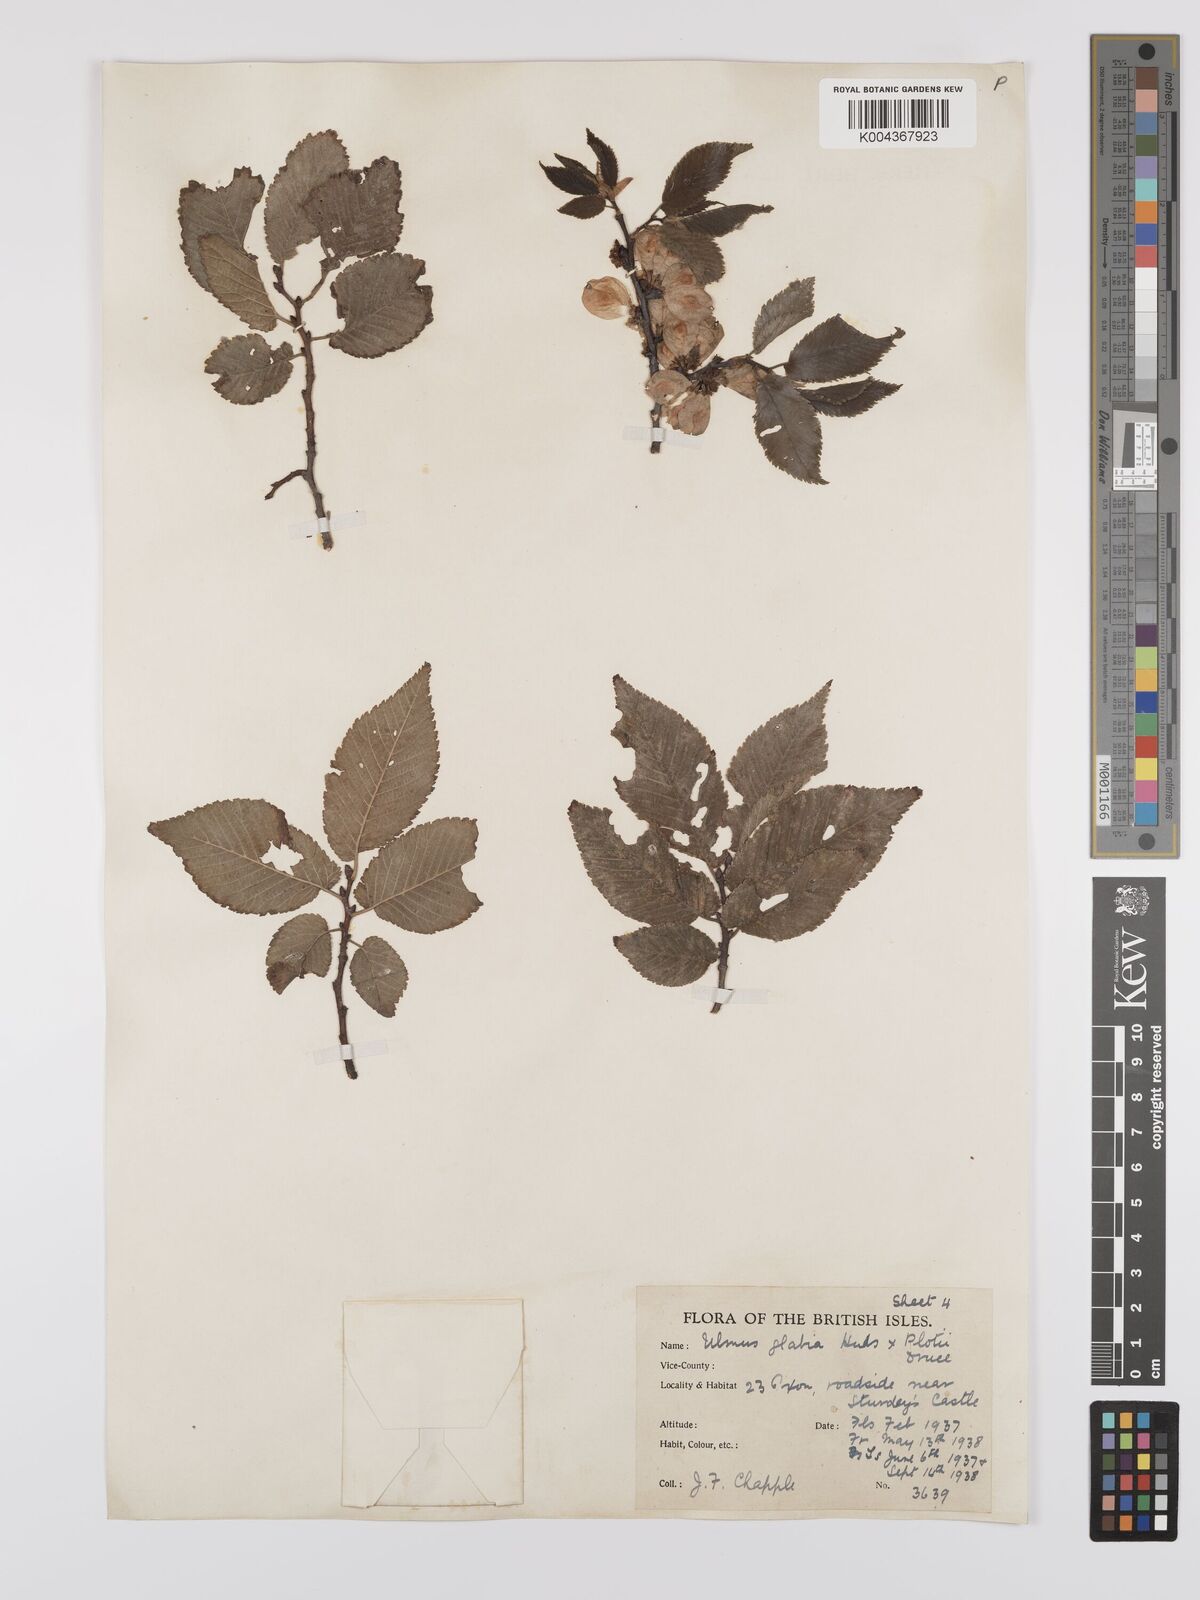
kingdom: Plantae
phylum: Tracheophyta
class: Magnoliopsida
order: Rosales
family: Ulmaceae
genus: Ulmus
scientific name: Ulmus
